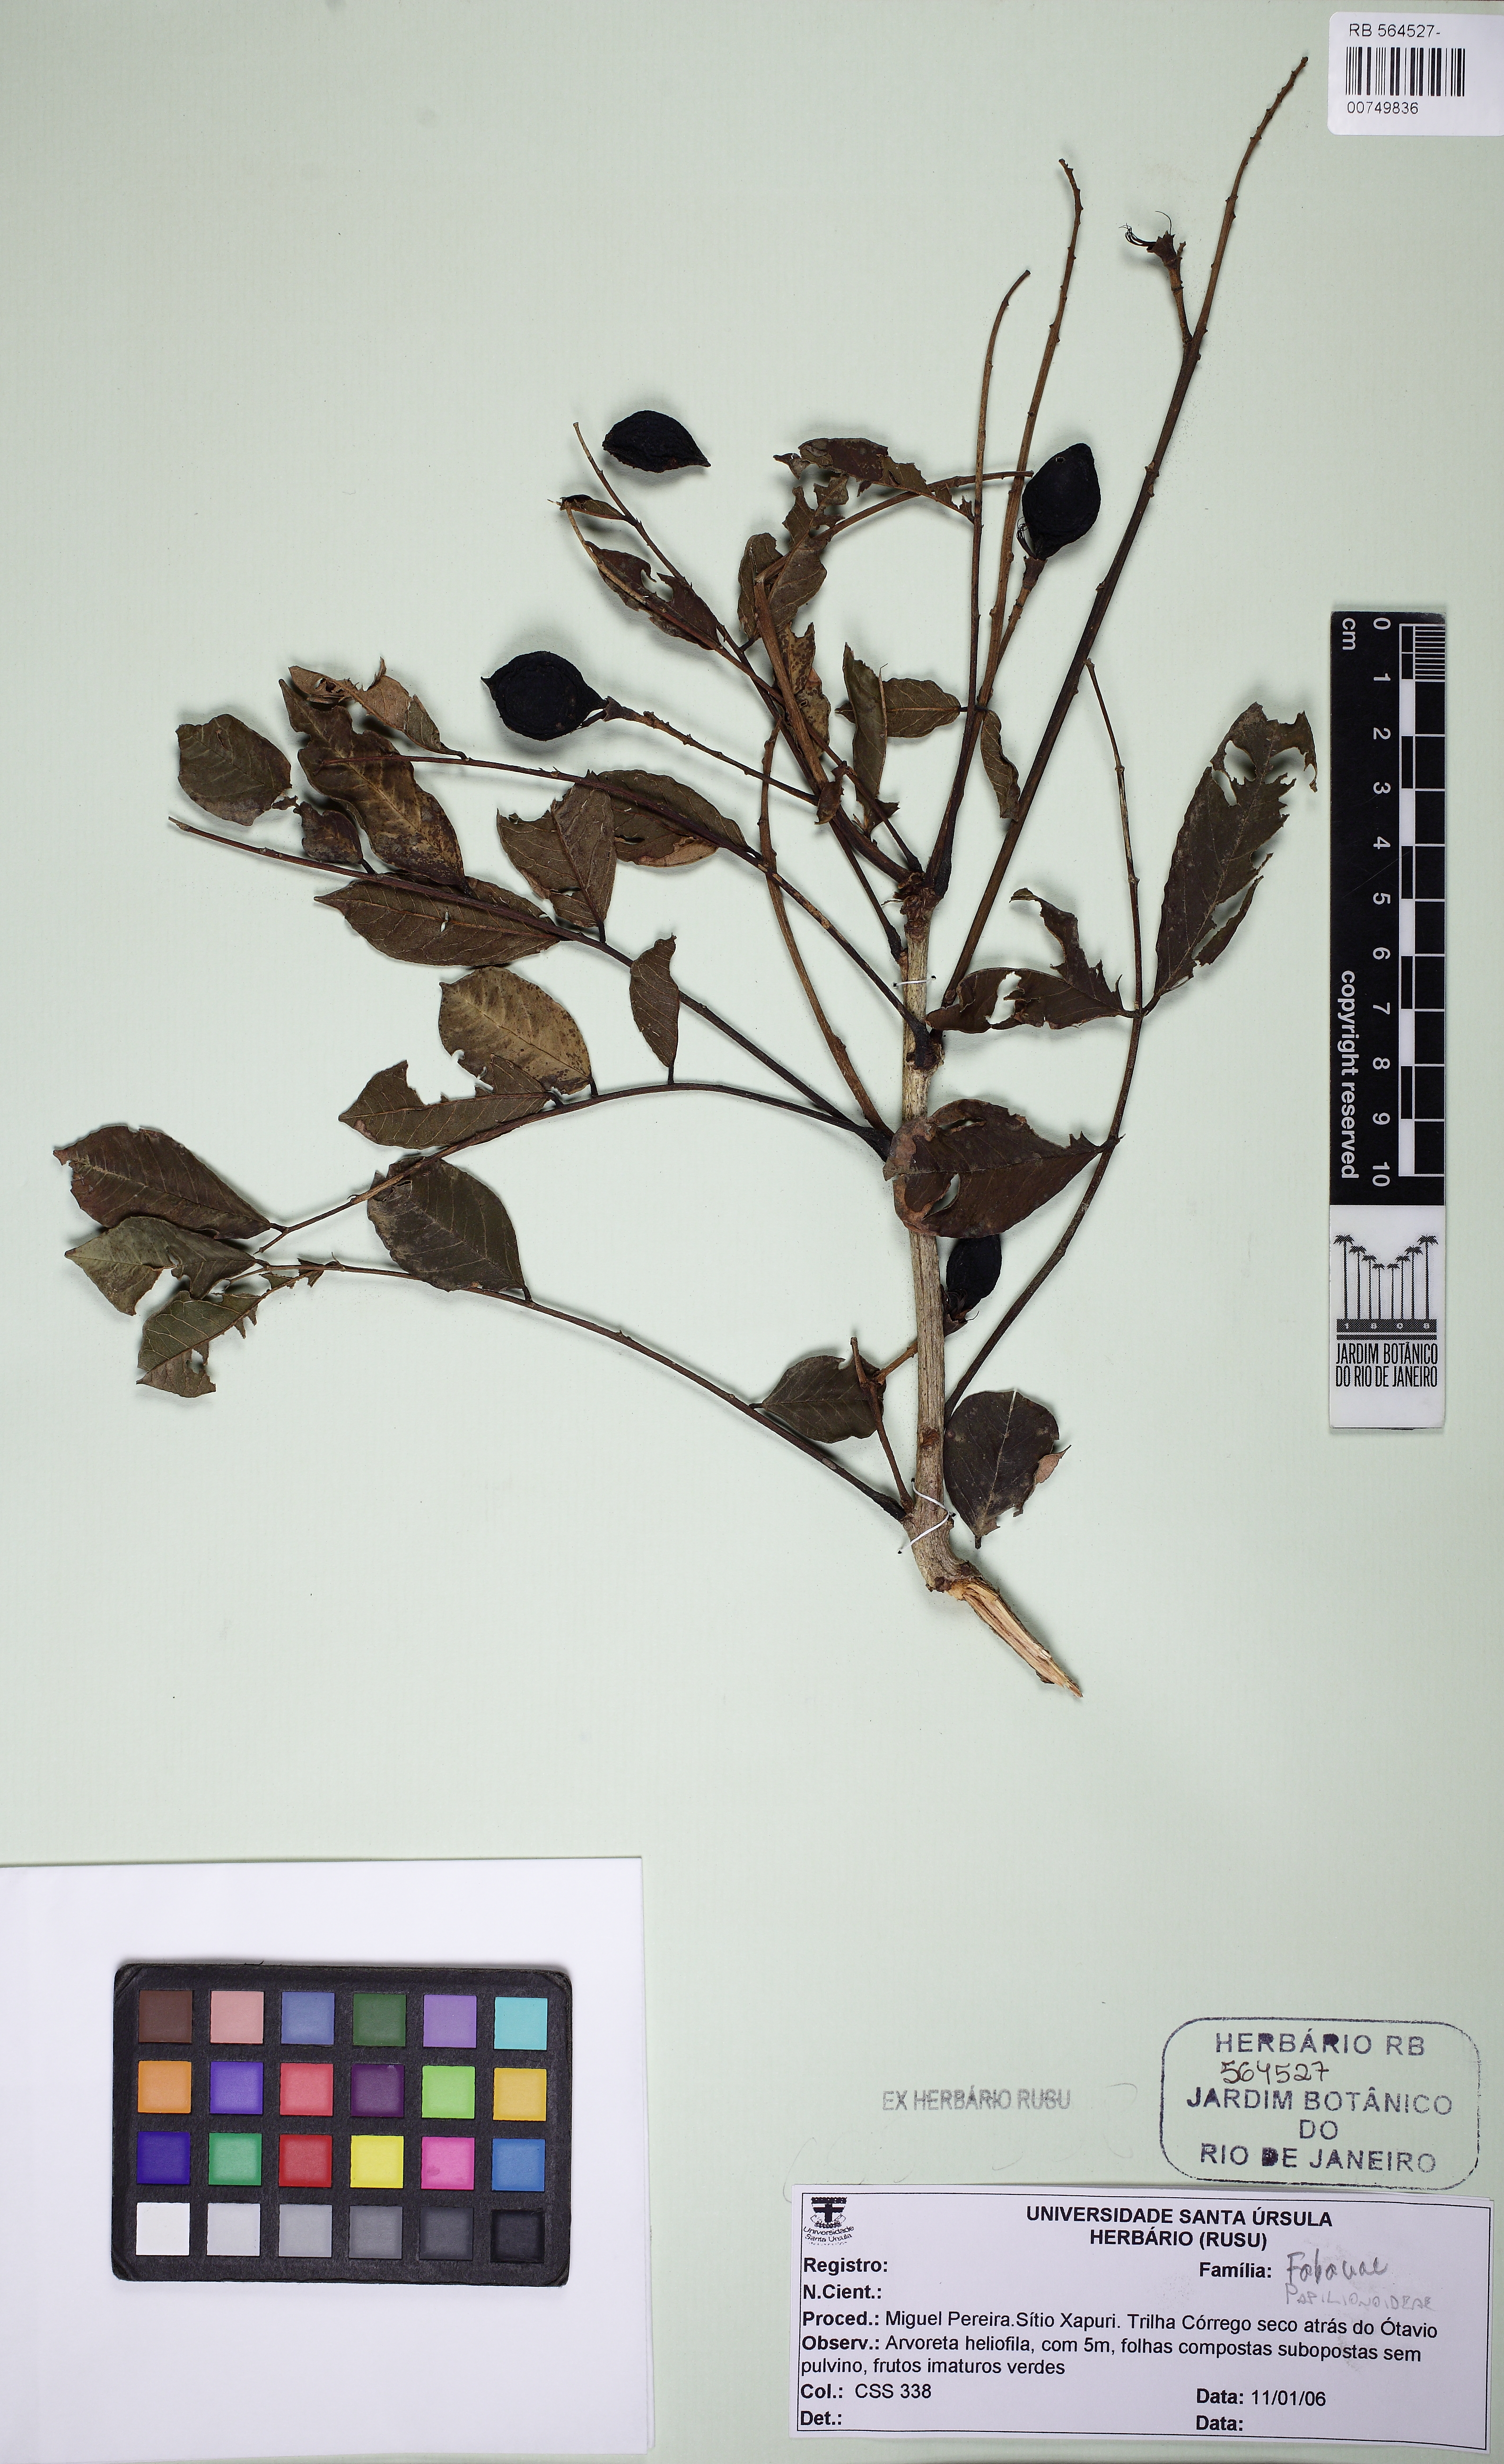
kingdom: Plantae
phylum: Tracheophyta
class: Magnoliopsida
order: Fabales
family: Fabaceae
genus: Andira
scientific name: Andira
